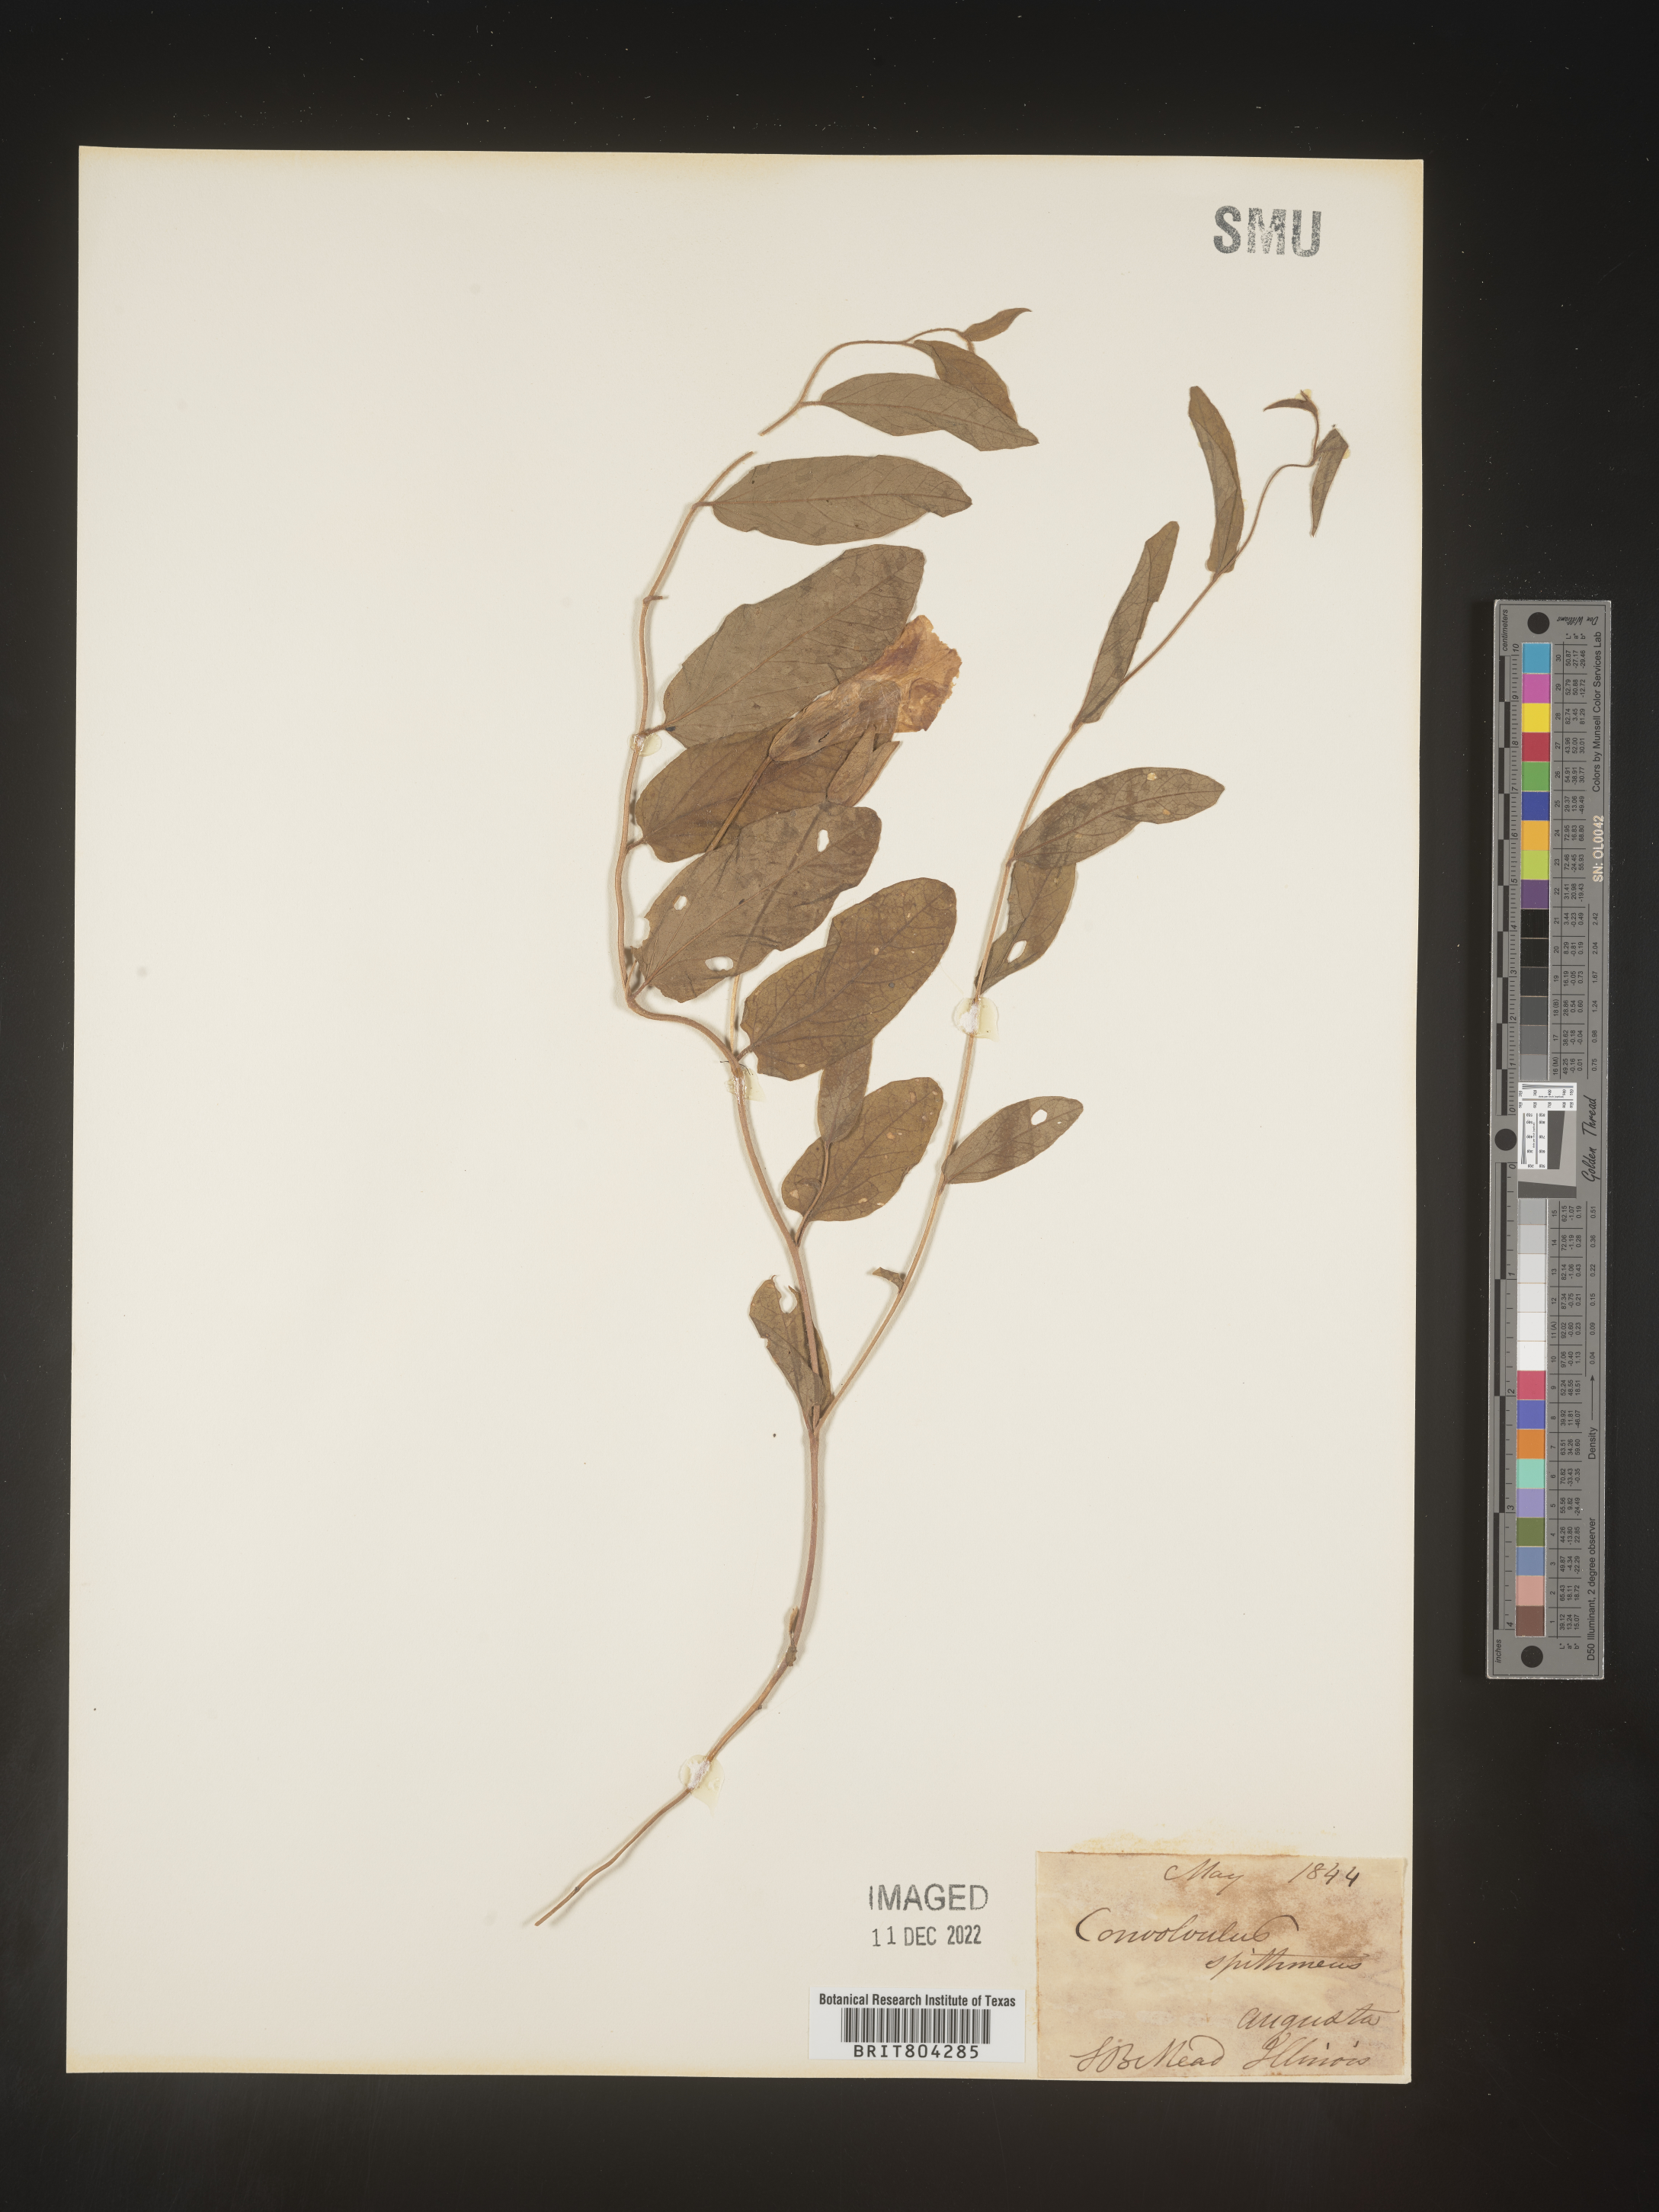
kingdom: Plantae
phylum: Tracheophyta
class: Magnoliopsida
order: Solanales
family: Convolvulaceae
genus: Calystegia
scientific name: Calystegia
